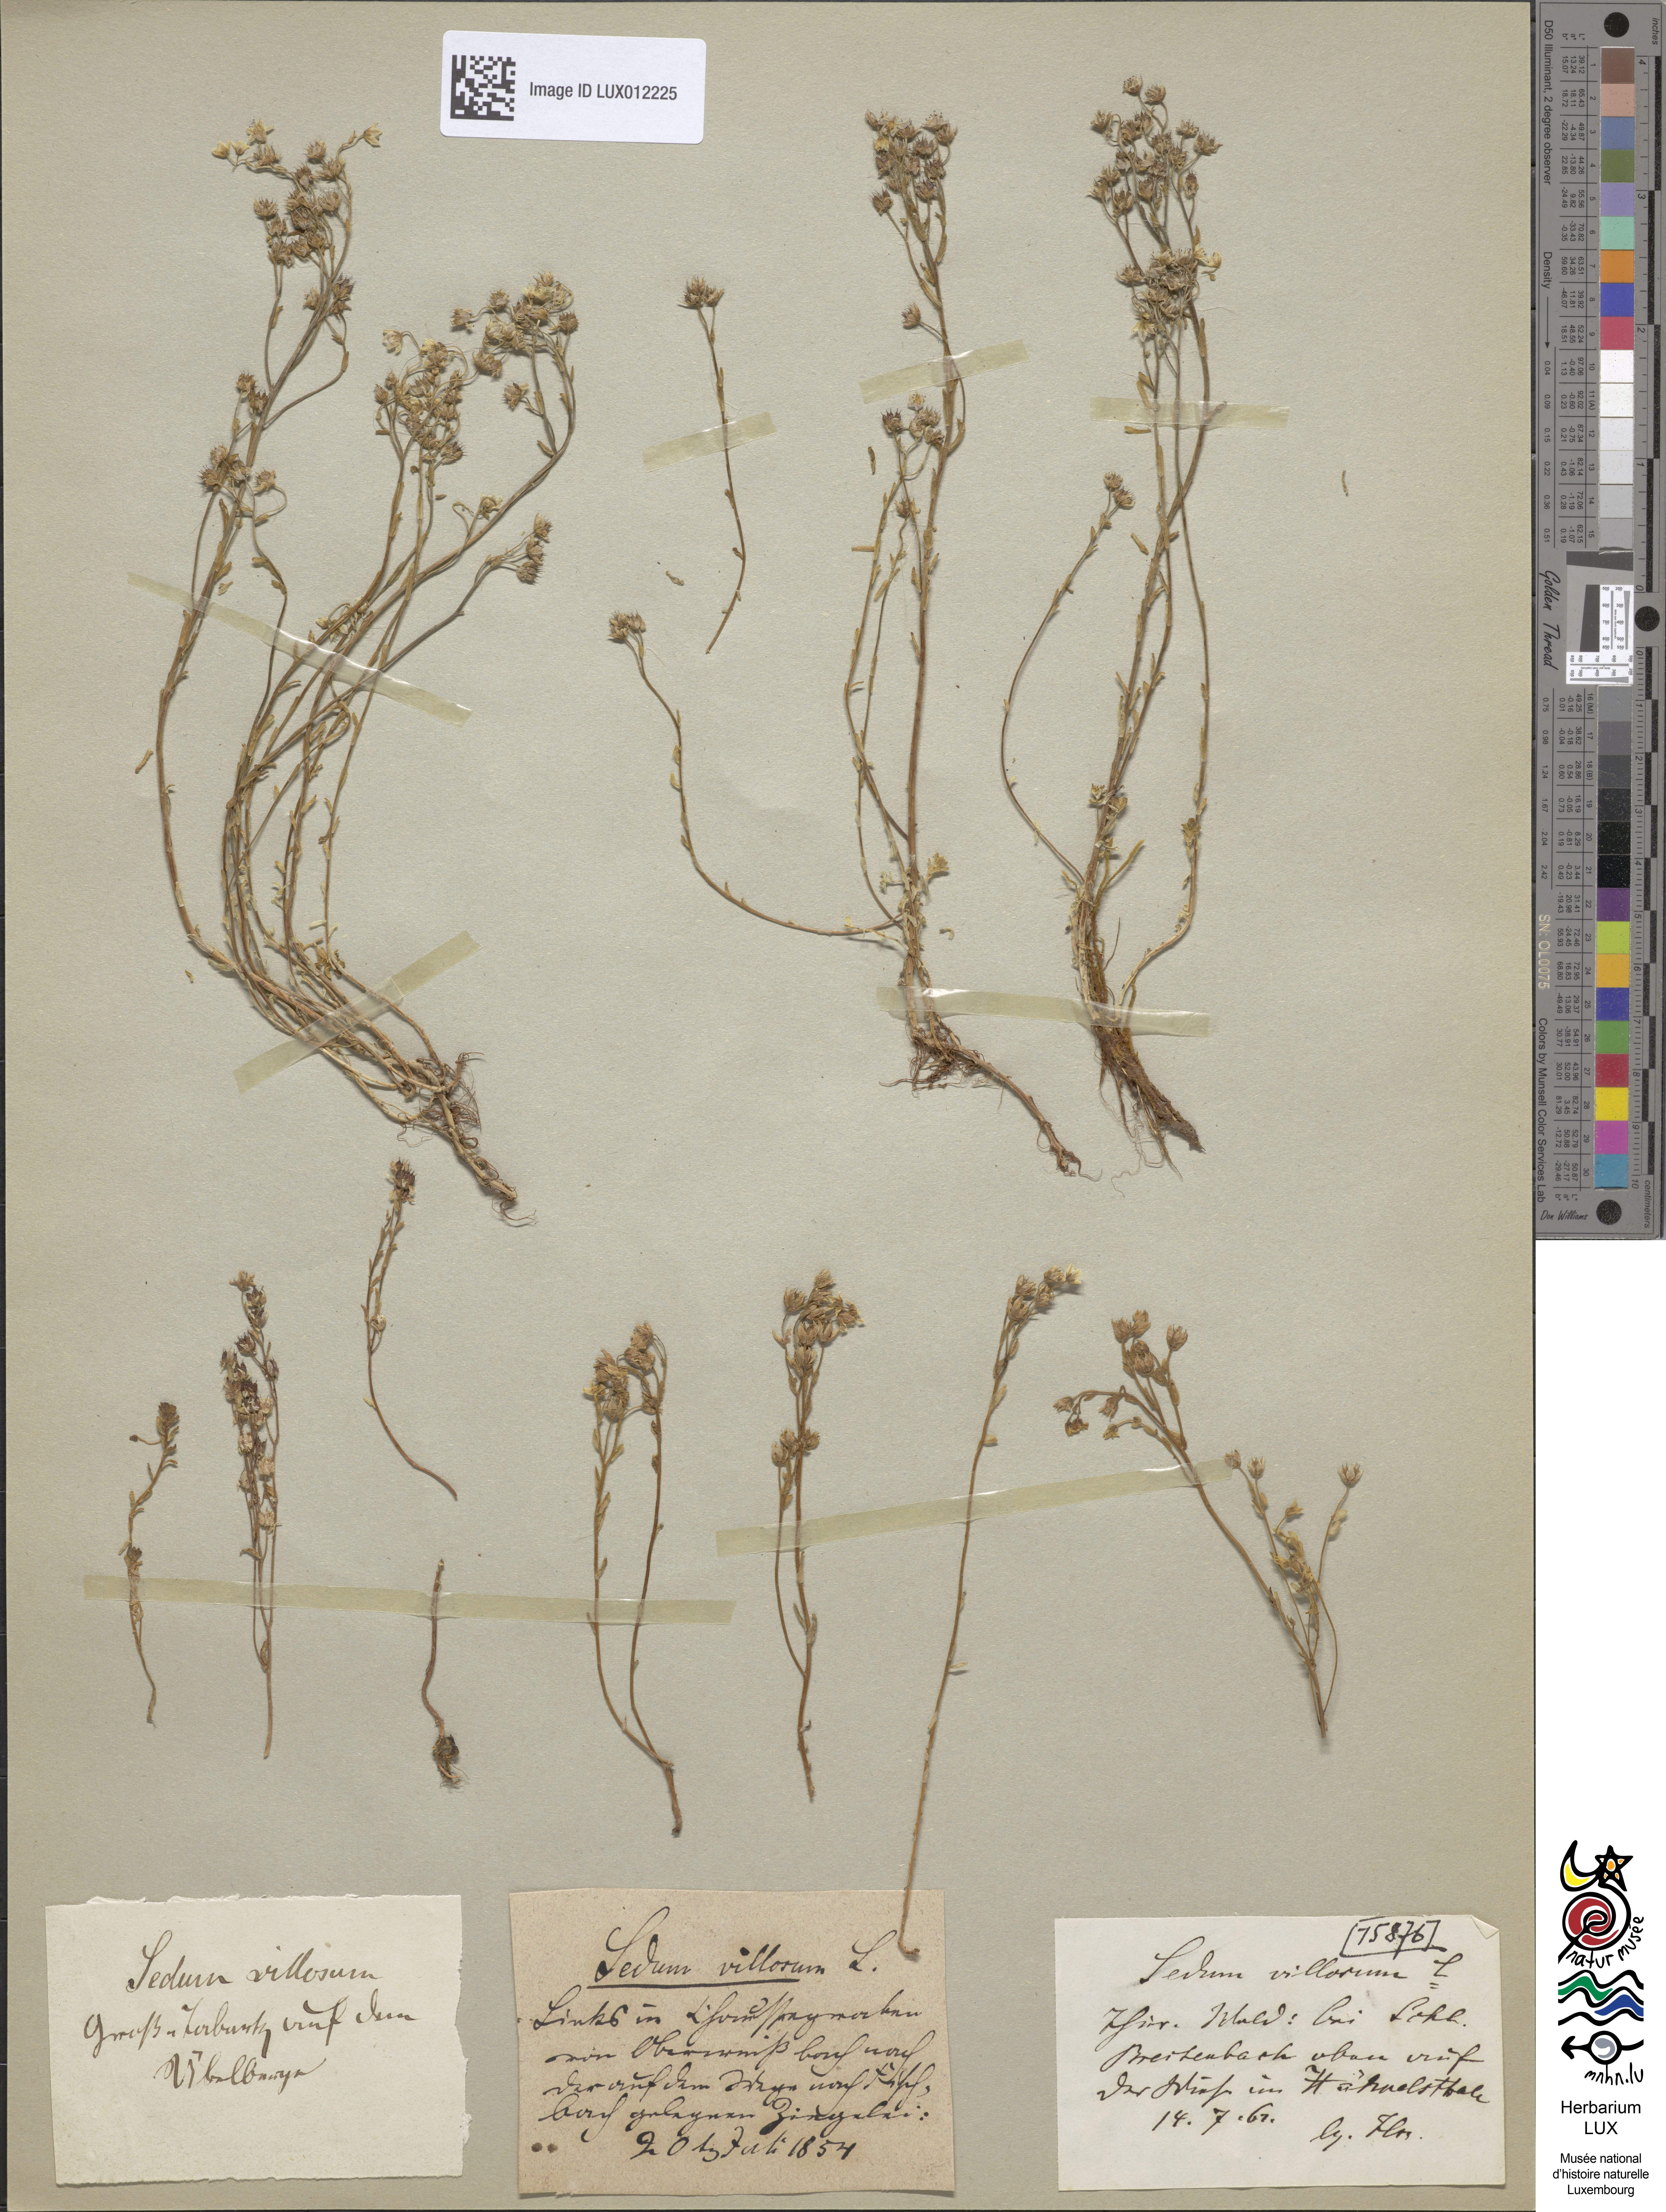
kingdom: Plantae
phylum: Tracheophyta
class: Magnoliopsida
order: Saxifragales
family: Crassulaceae
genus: Sedum
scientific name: Sedum villosum
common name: Hairy stonecrop
